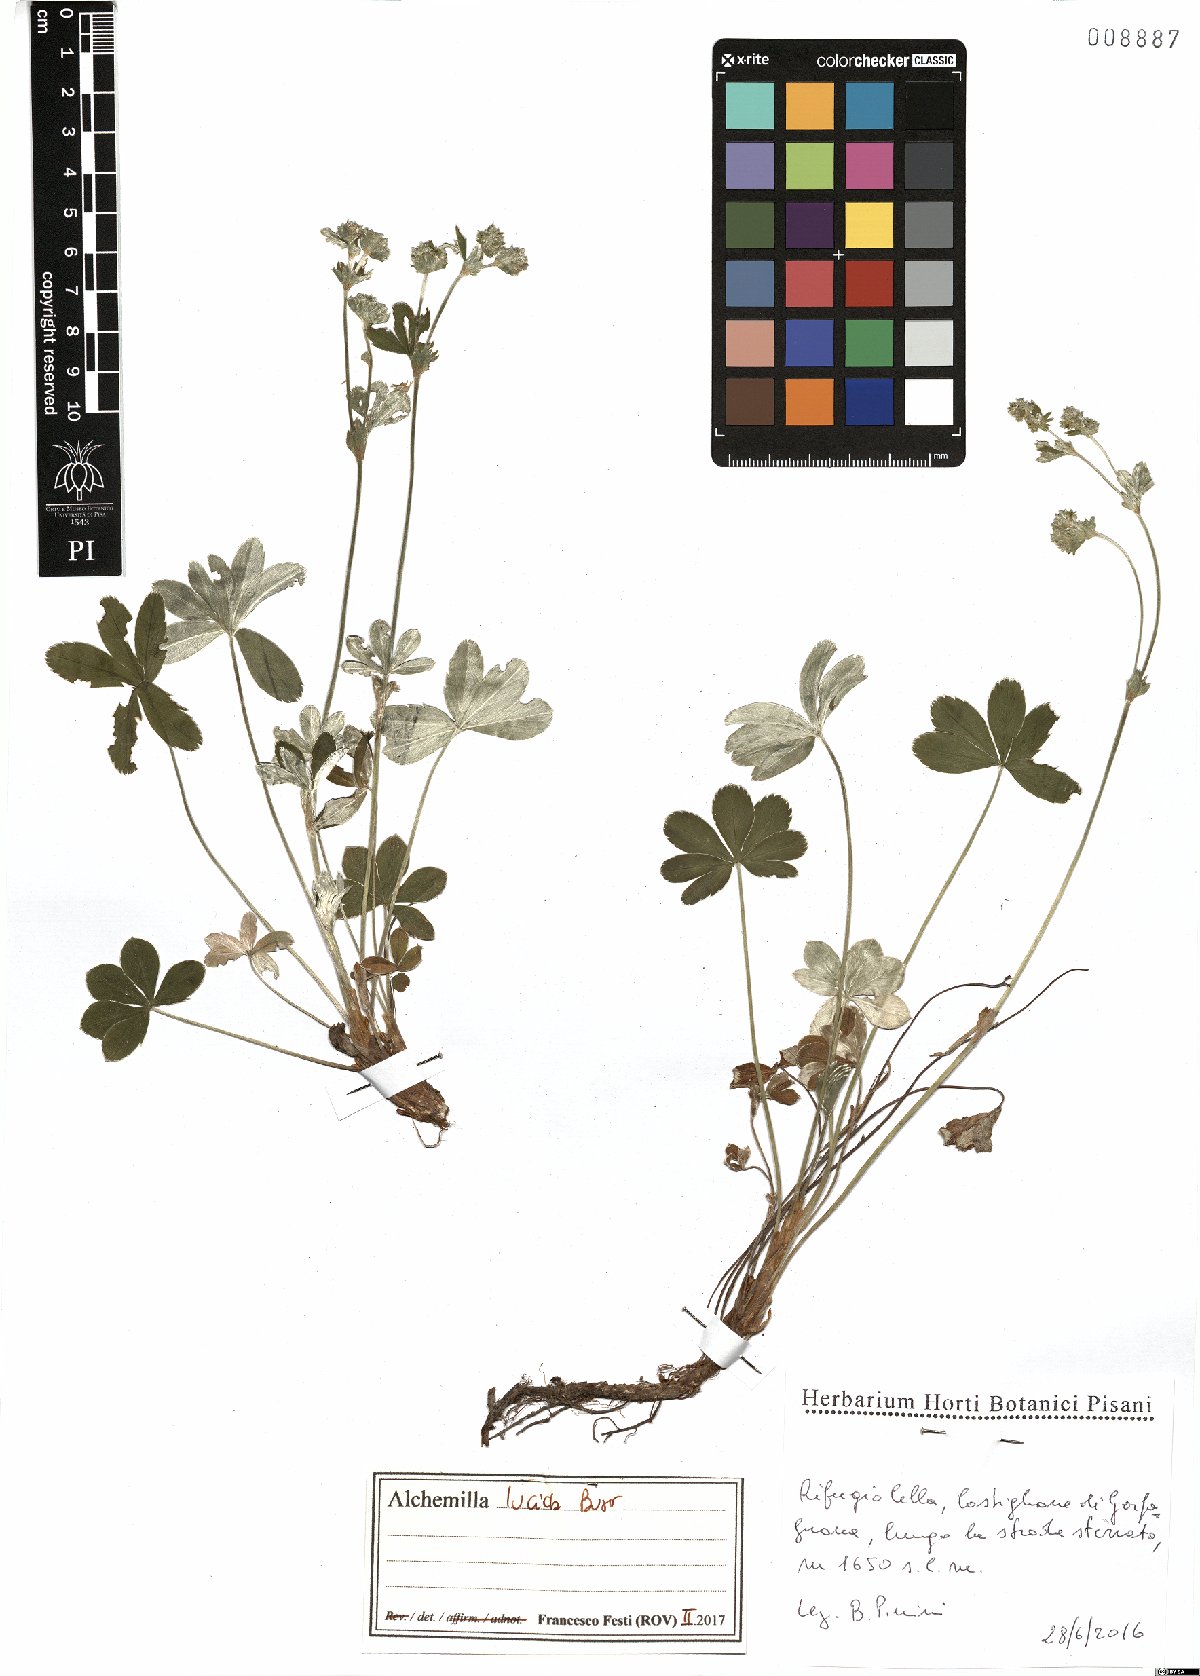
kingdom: Plantae
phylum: Tracheophyta
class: Magnoliopsida
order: Rosales
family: Rosaceae
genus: Alchemilla
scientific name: Alchemilla lucida
